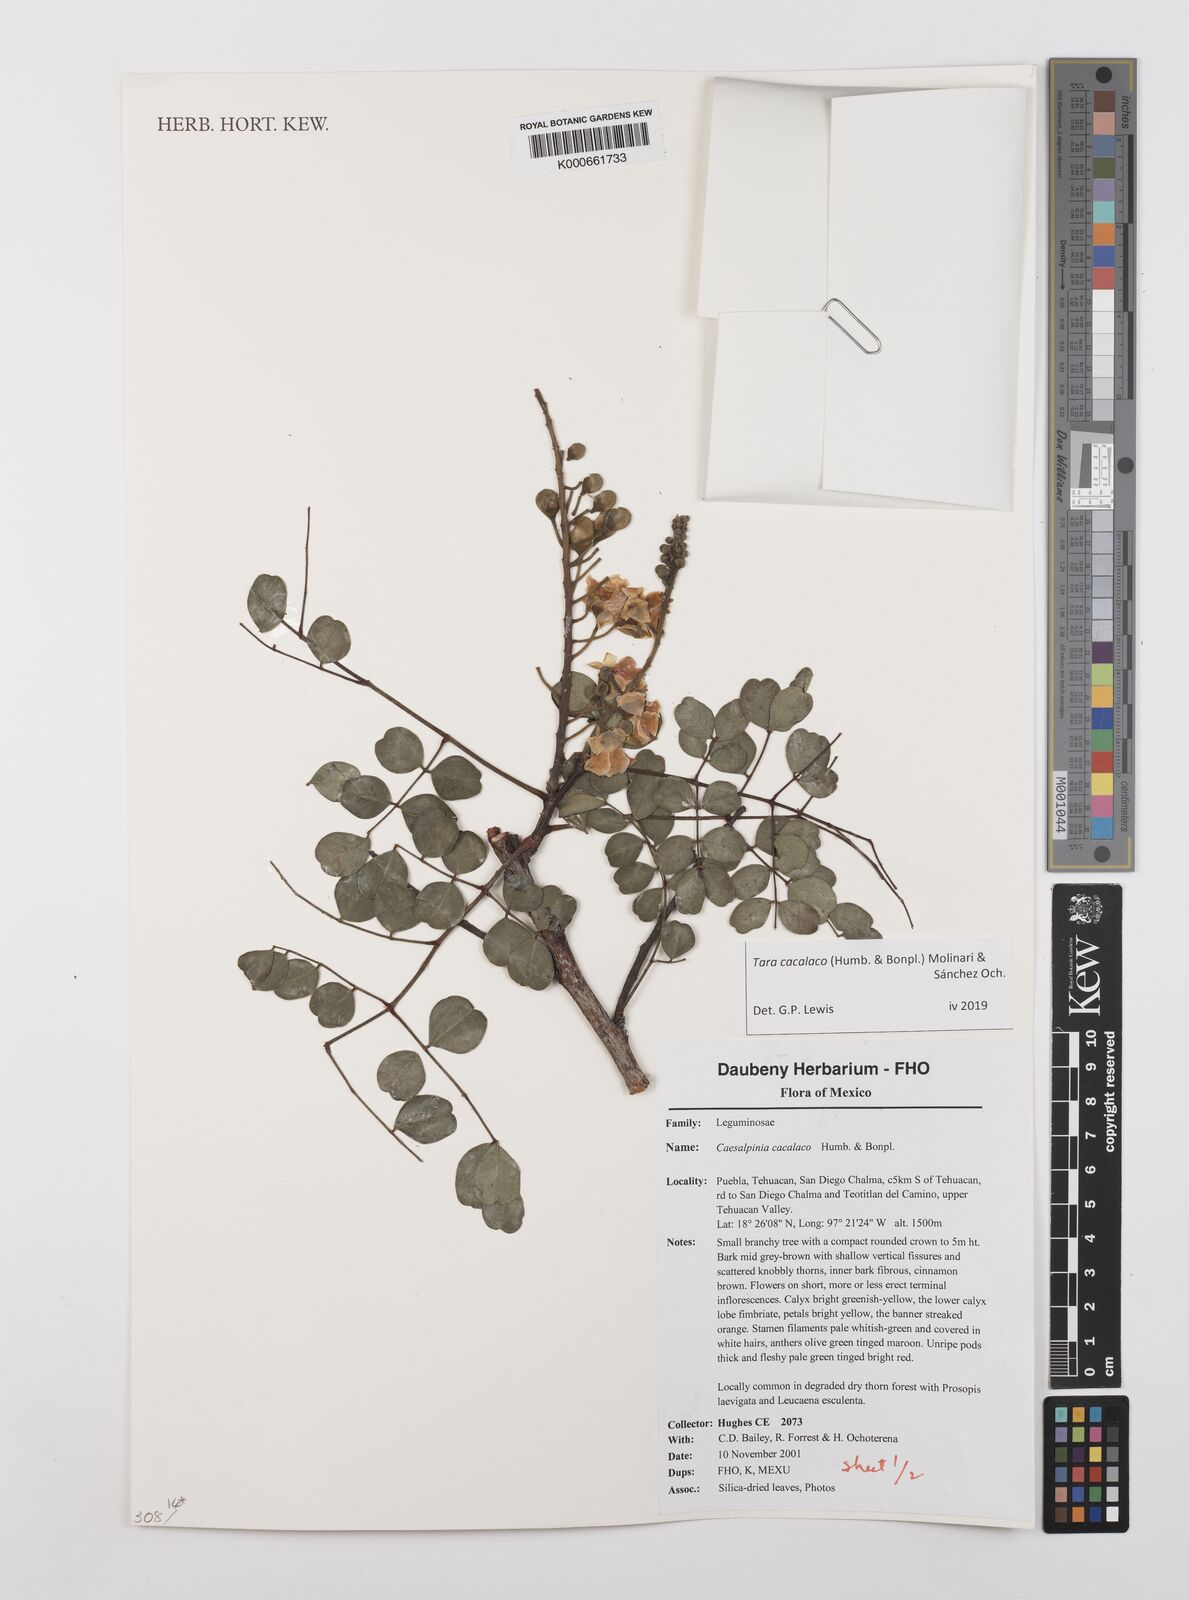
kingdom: Plantae
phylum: Tracheophyta
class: Magnoliopsida
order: Fabales
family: Fabaceae
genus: Tara
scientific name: Tara cacalaco
